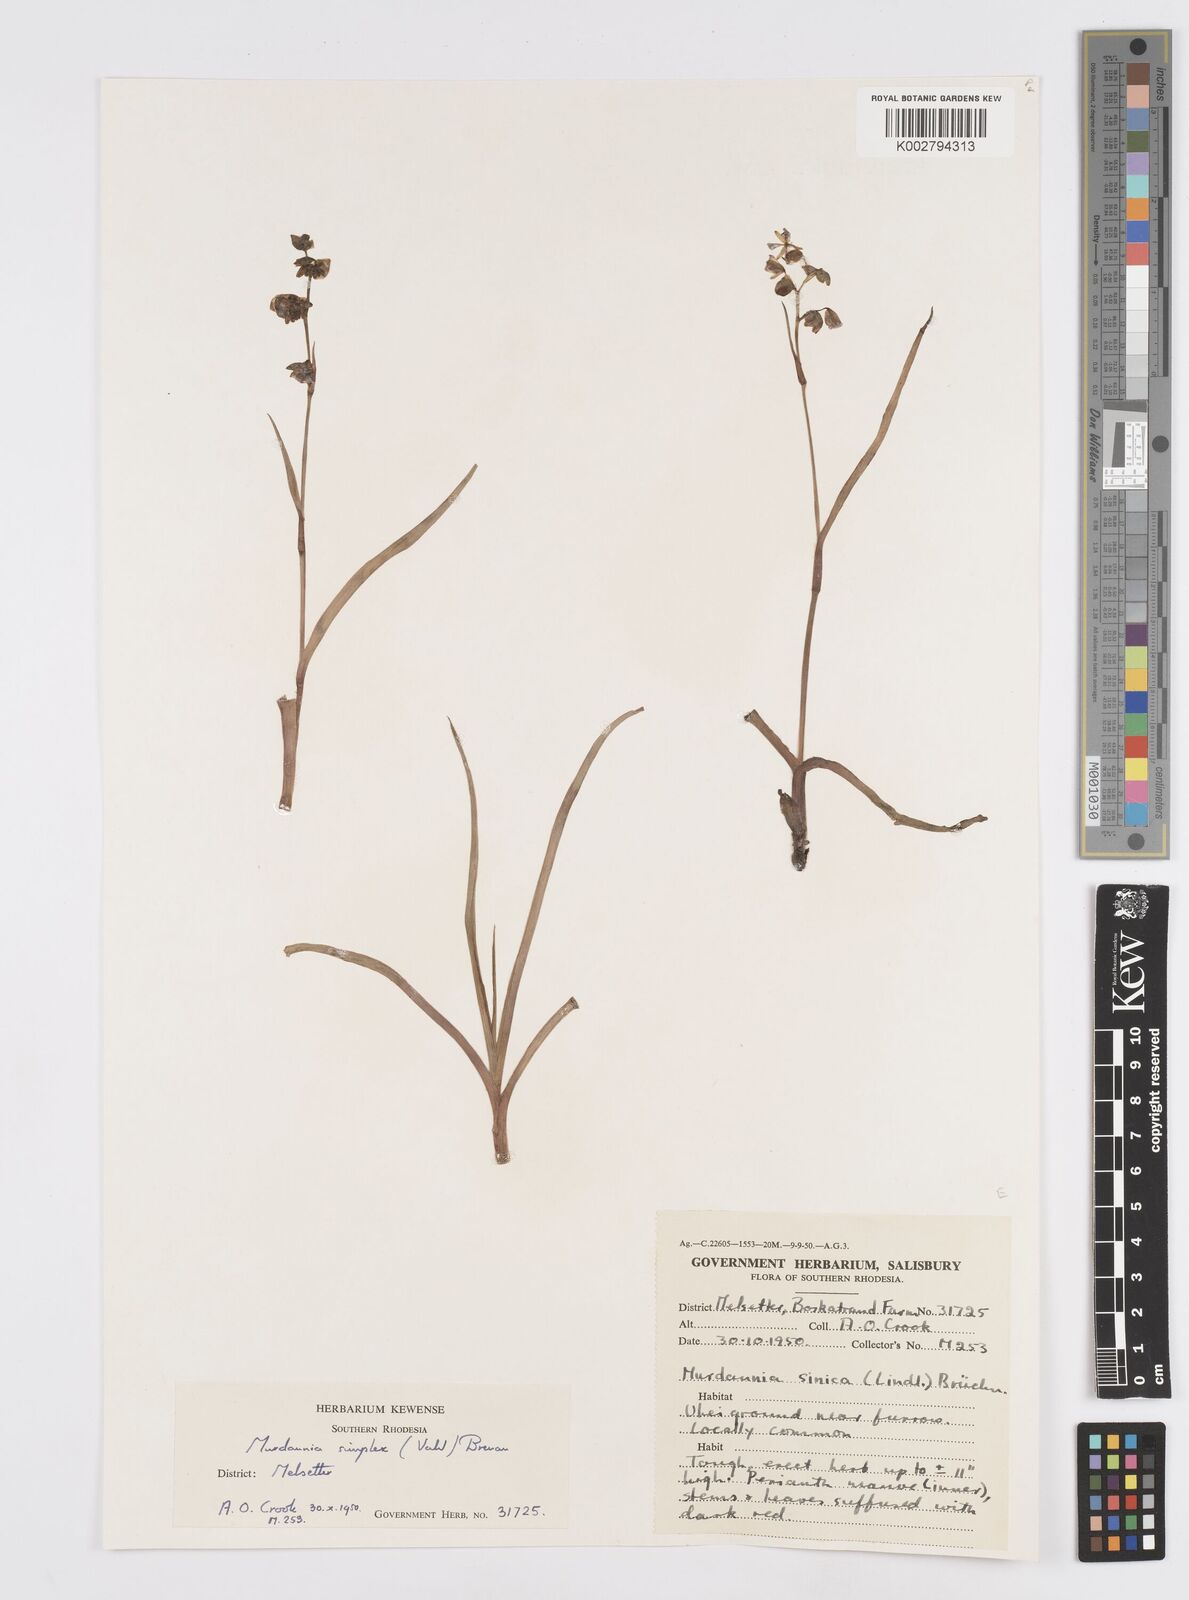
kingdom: Plantae
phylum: Tracheophyta
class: Liliopsida
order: Commelinales
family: Commelinaceae
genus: Murdannia
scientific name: Murdannia simplex
